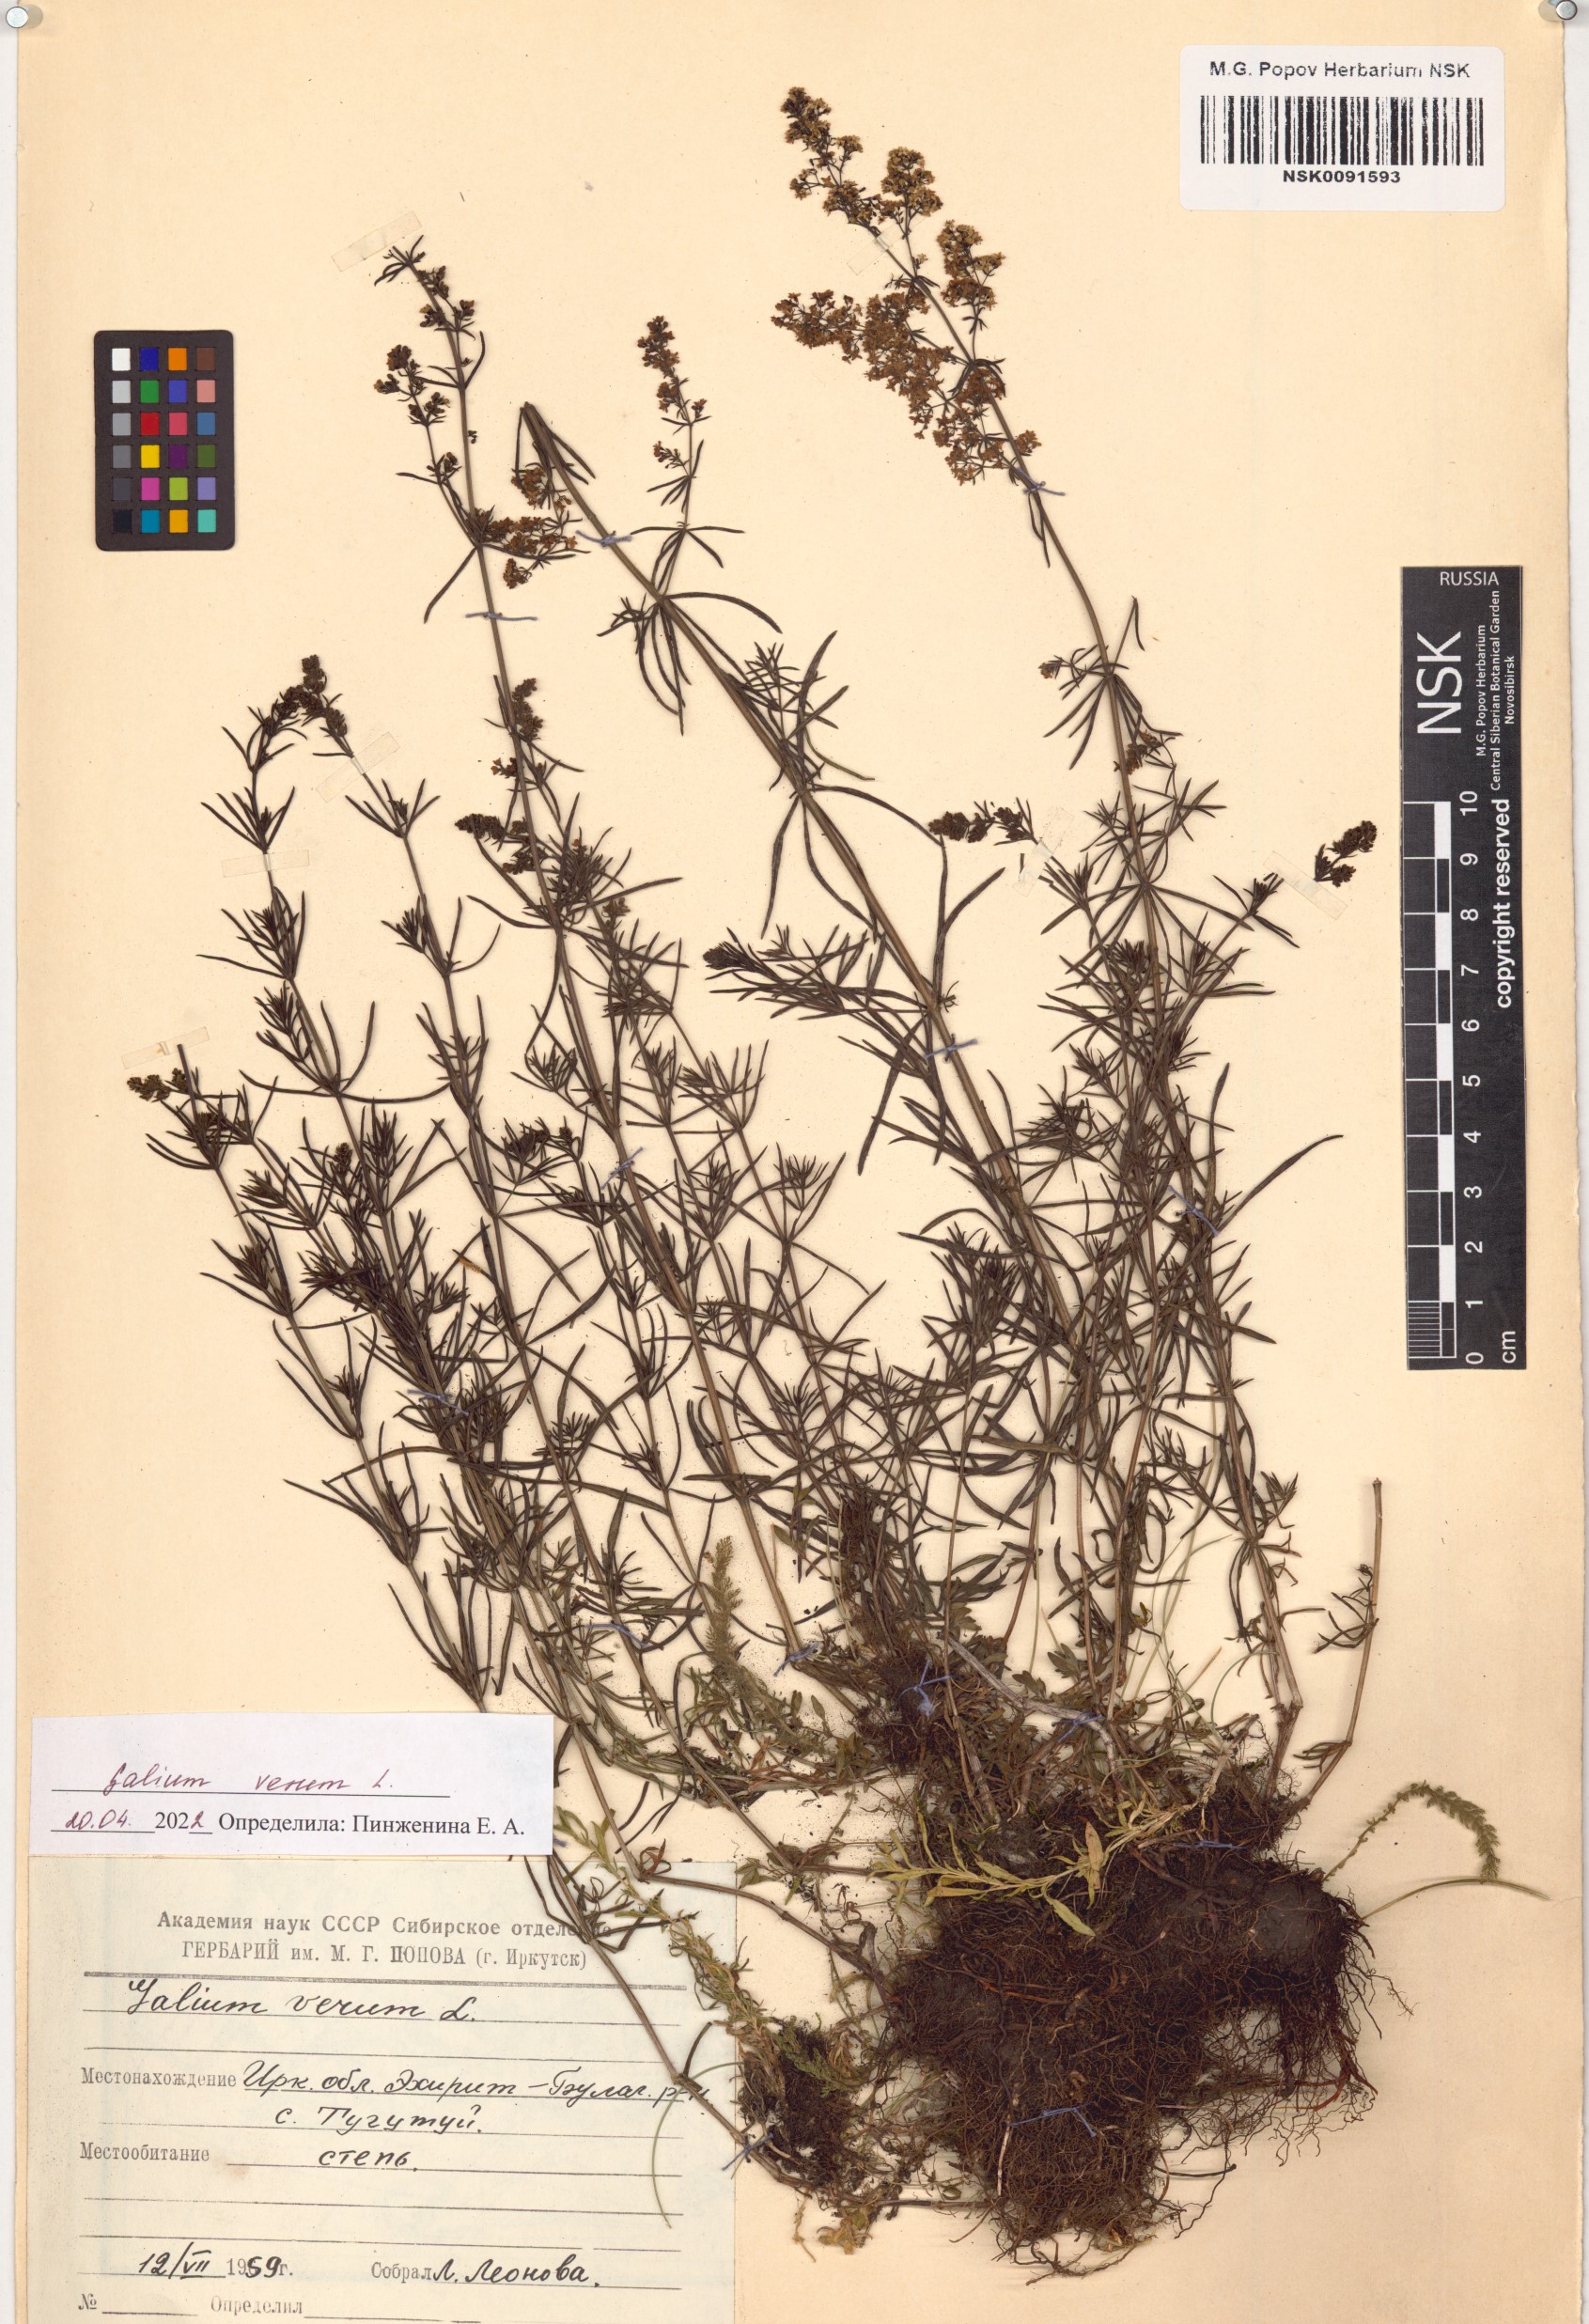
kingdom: Plantae
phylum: Tracheophyta
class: Magnoliopsida
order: Gentianales
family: Rubiaceae
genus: Galium
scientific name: Galium verum
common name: Lady's bedstraw
